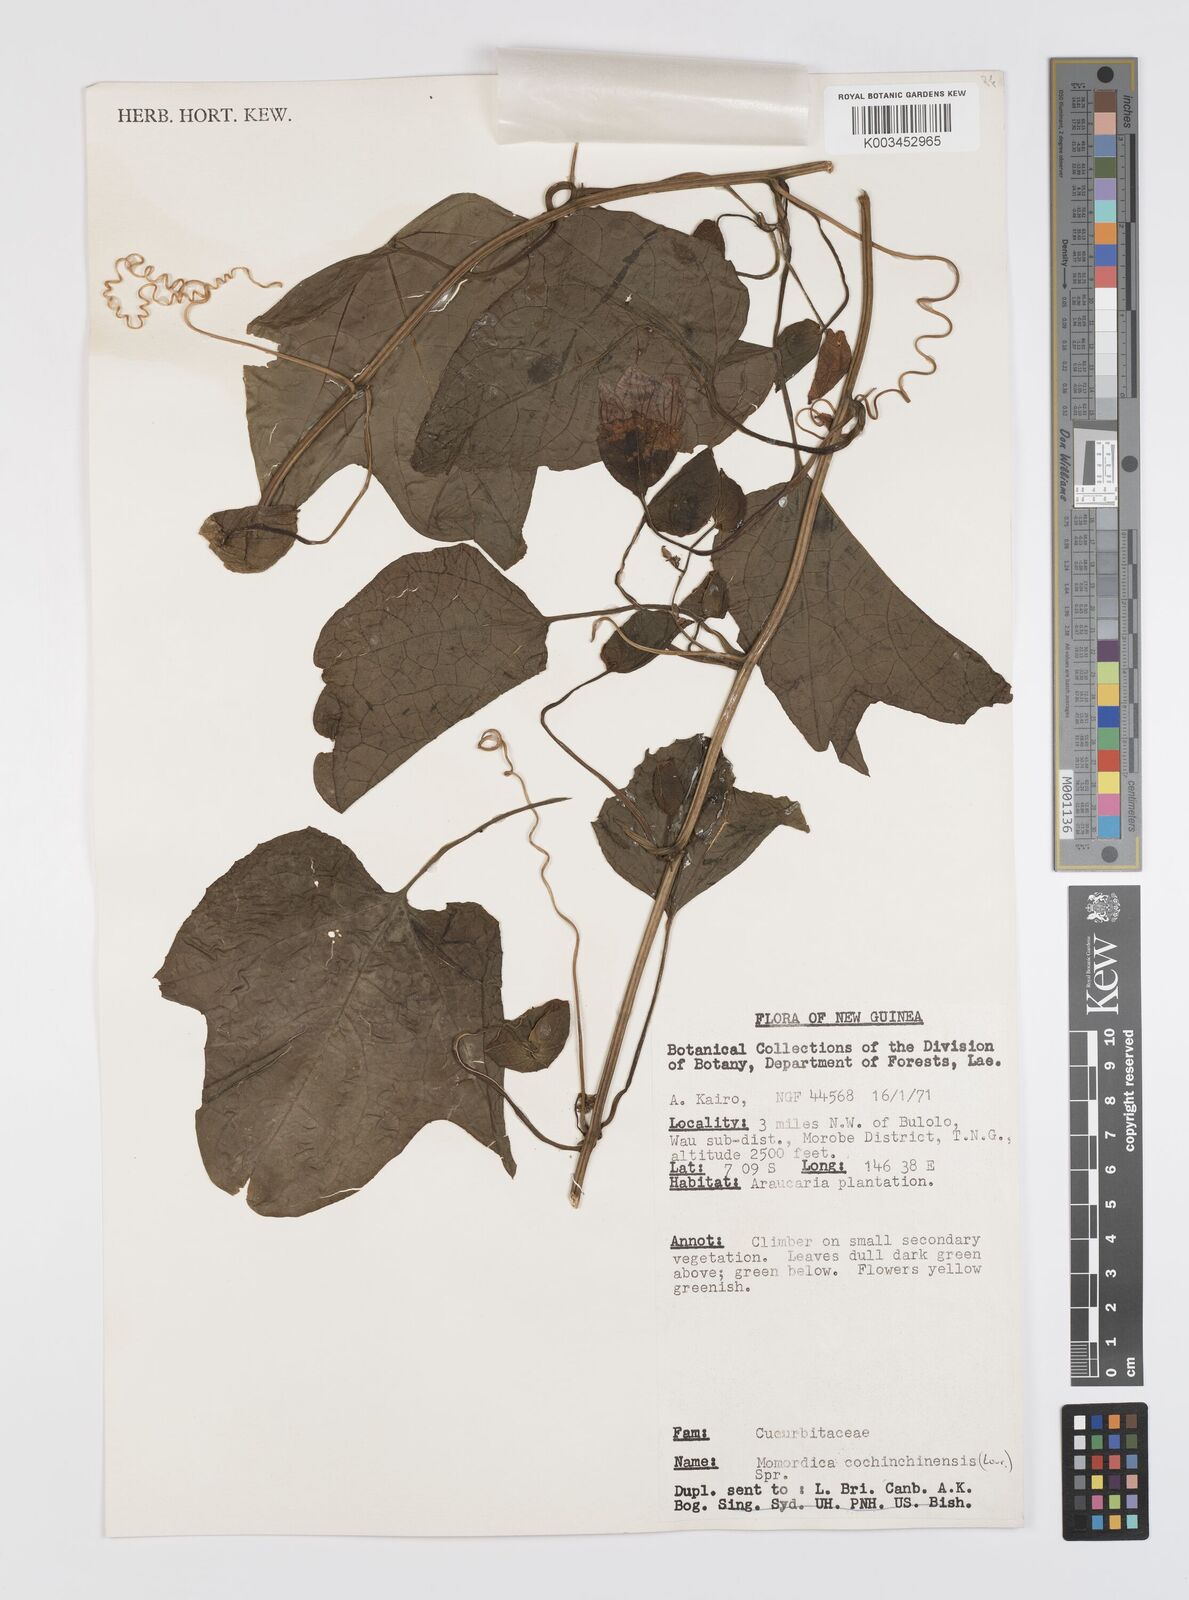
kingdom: Plantae
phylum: Tracheophyta
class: Magnoliopsida
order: Cucurbitales
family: Cucurbitaceae
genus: Momordica
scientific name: Momordica cochinchinensis
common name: Chinese bitter-cucumber
